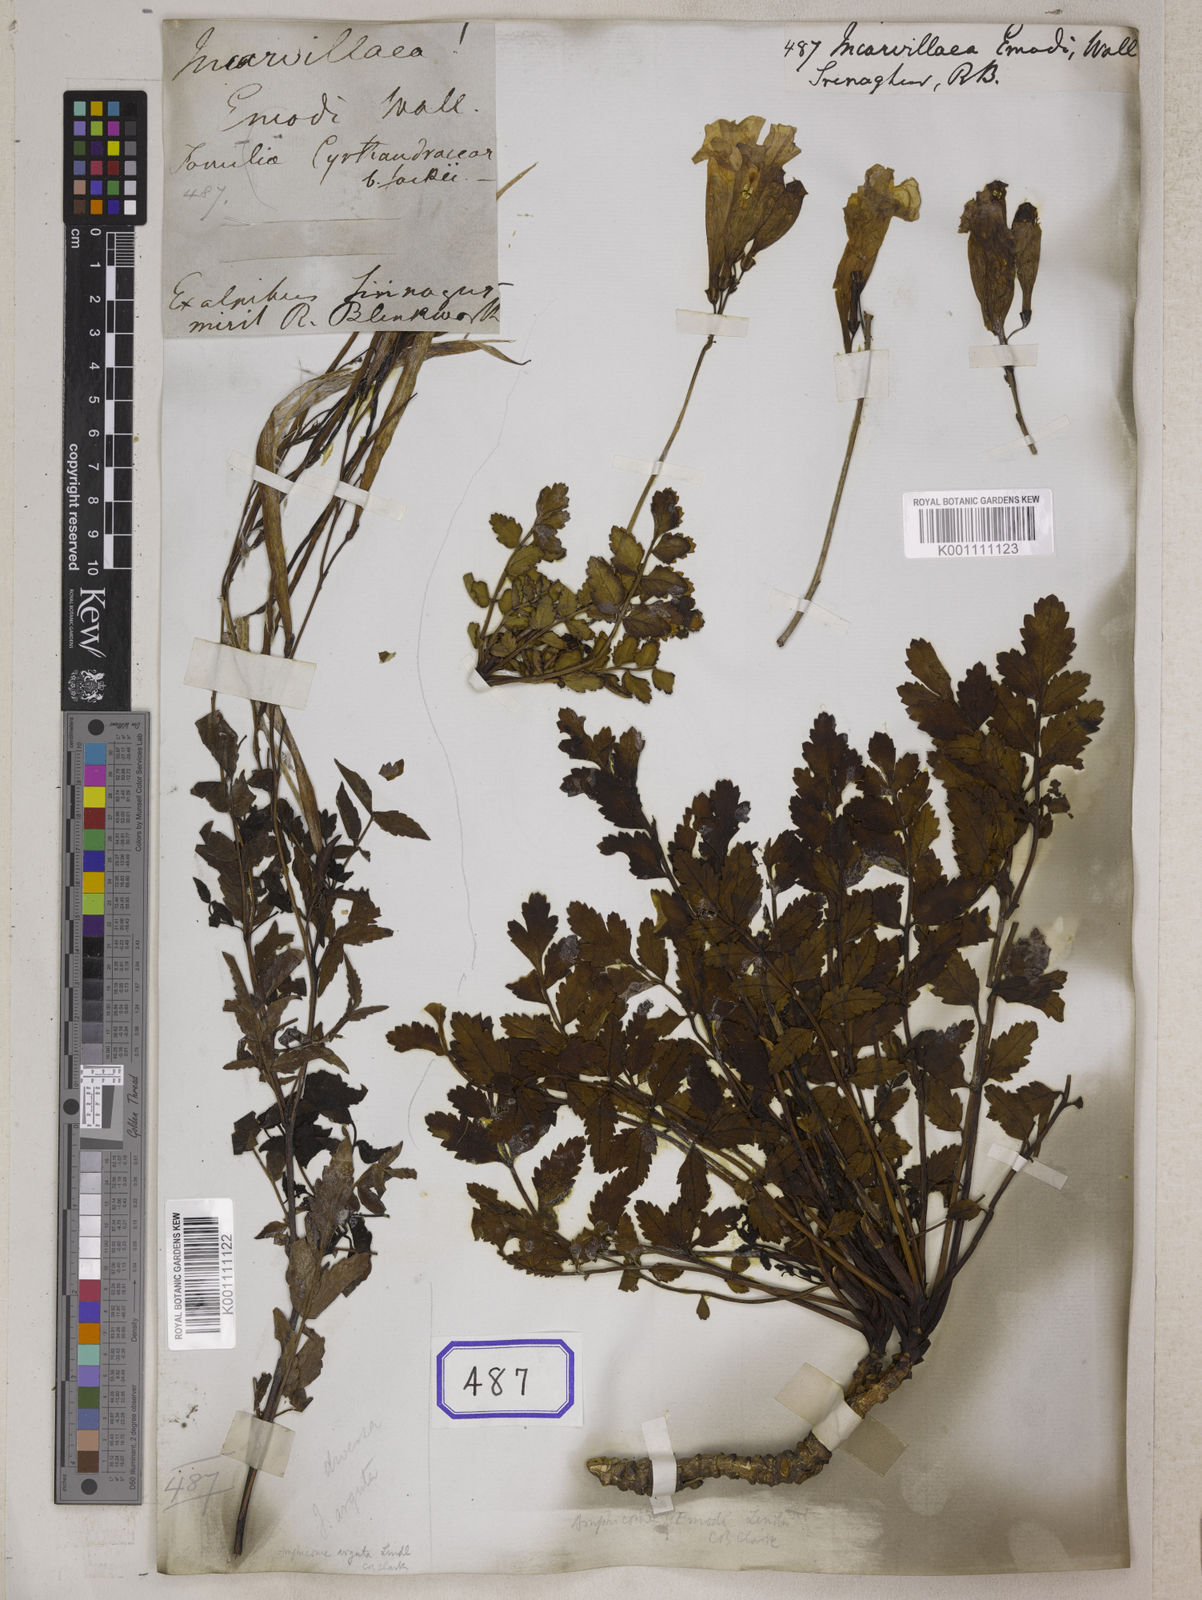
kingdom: Plantae
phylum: Tracheophyta
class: Magnoliopsida
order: Lamiales
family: Bignoniaceae
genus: Incarvillea
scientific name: Incarvillea
